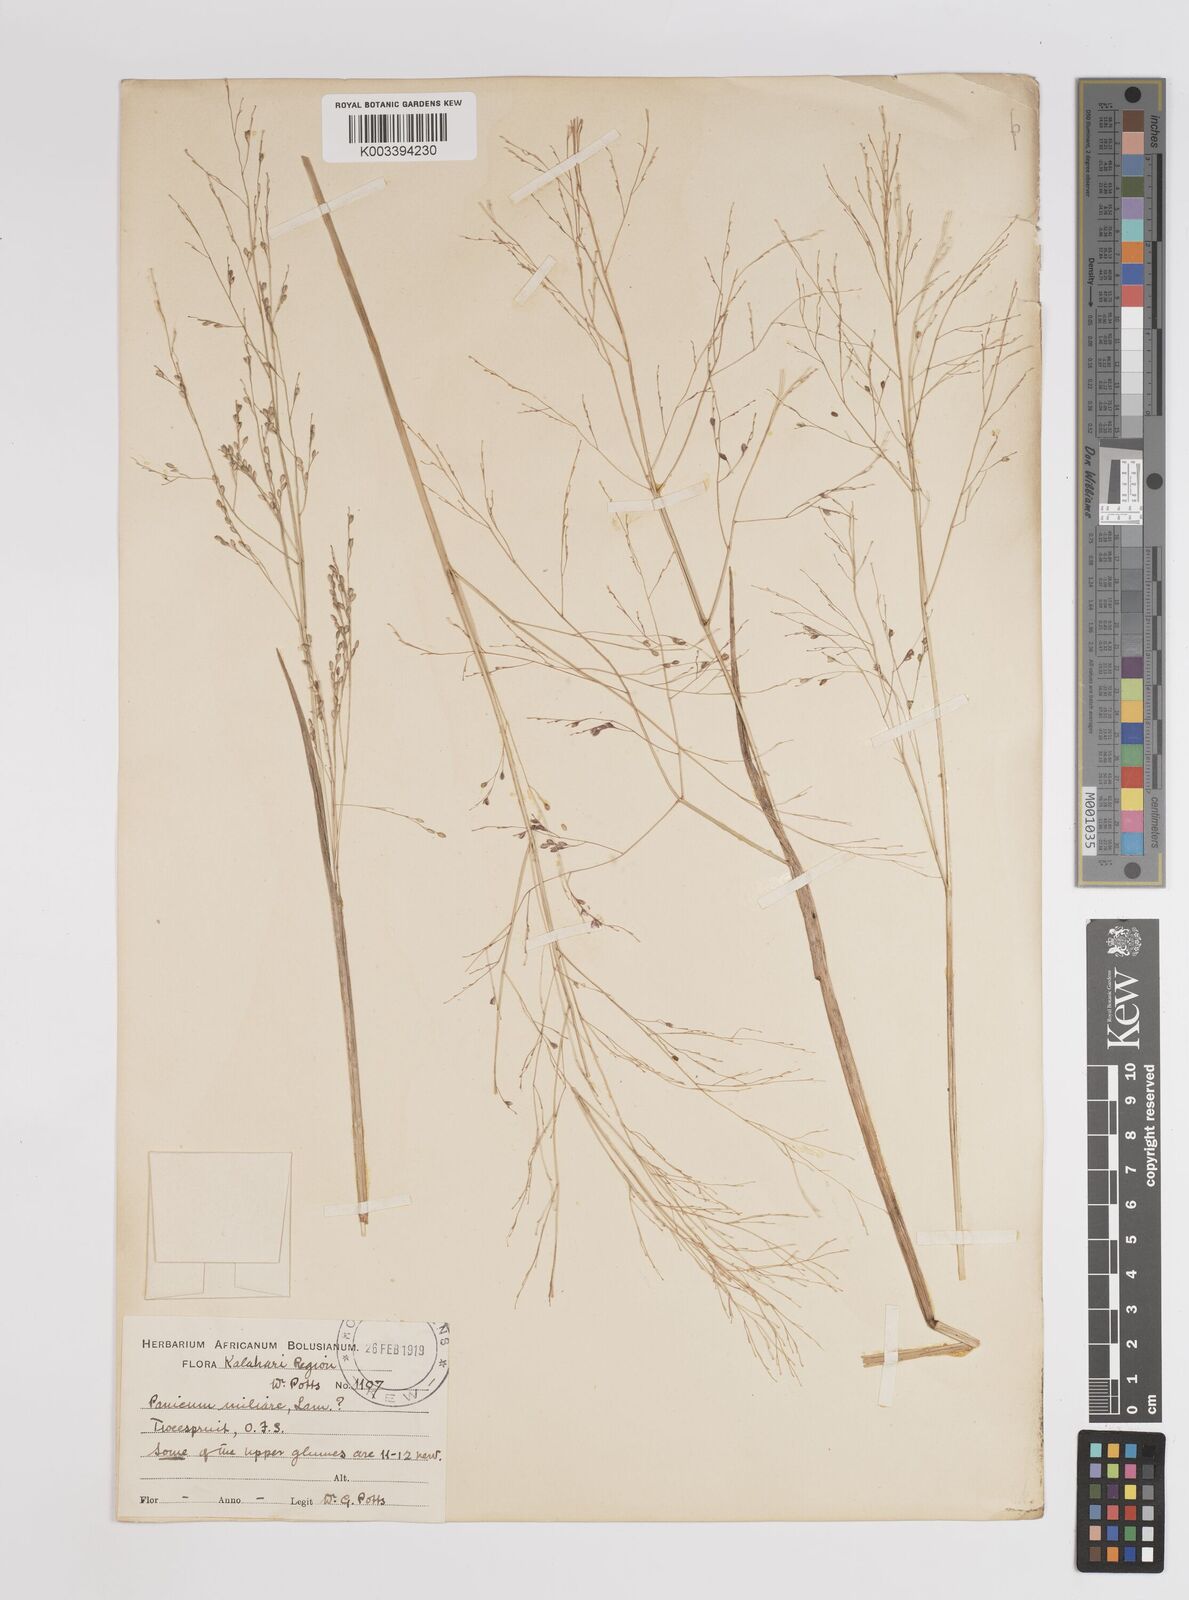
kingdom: Plantae
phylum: Tracheophyta
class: Liliopsida
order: Poales
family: Poaceae
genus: Panicum
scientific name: Panicum schinzii
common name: Sweet grass
